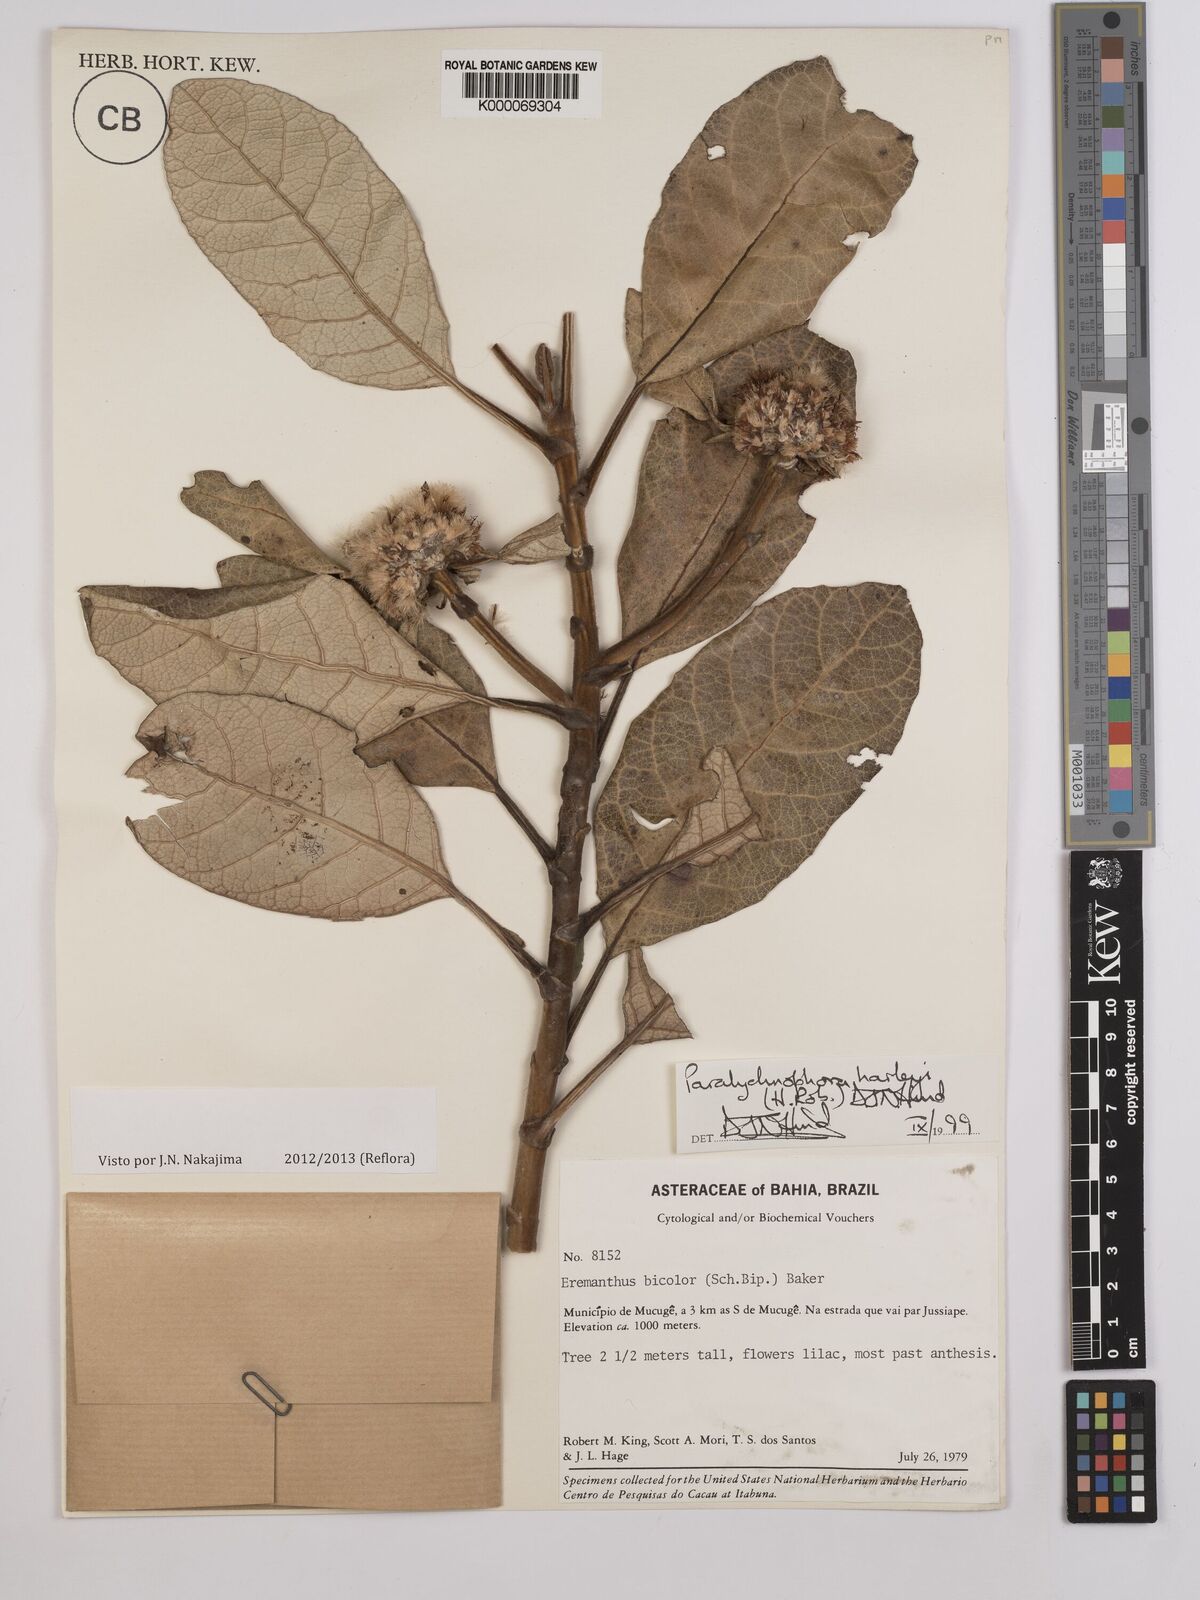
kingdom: Plantae
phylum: Tracheophyta
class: Magnoliopsida
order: Asterales
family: Asteraceae
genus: Paralychnophora
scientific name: Paralychnophora harleyi
